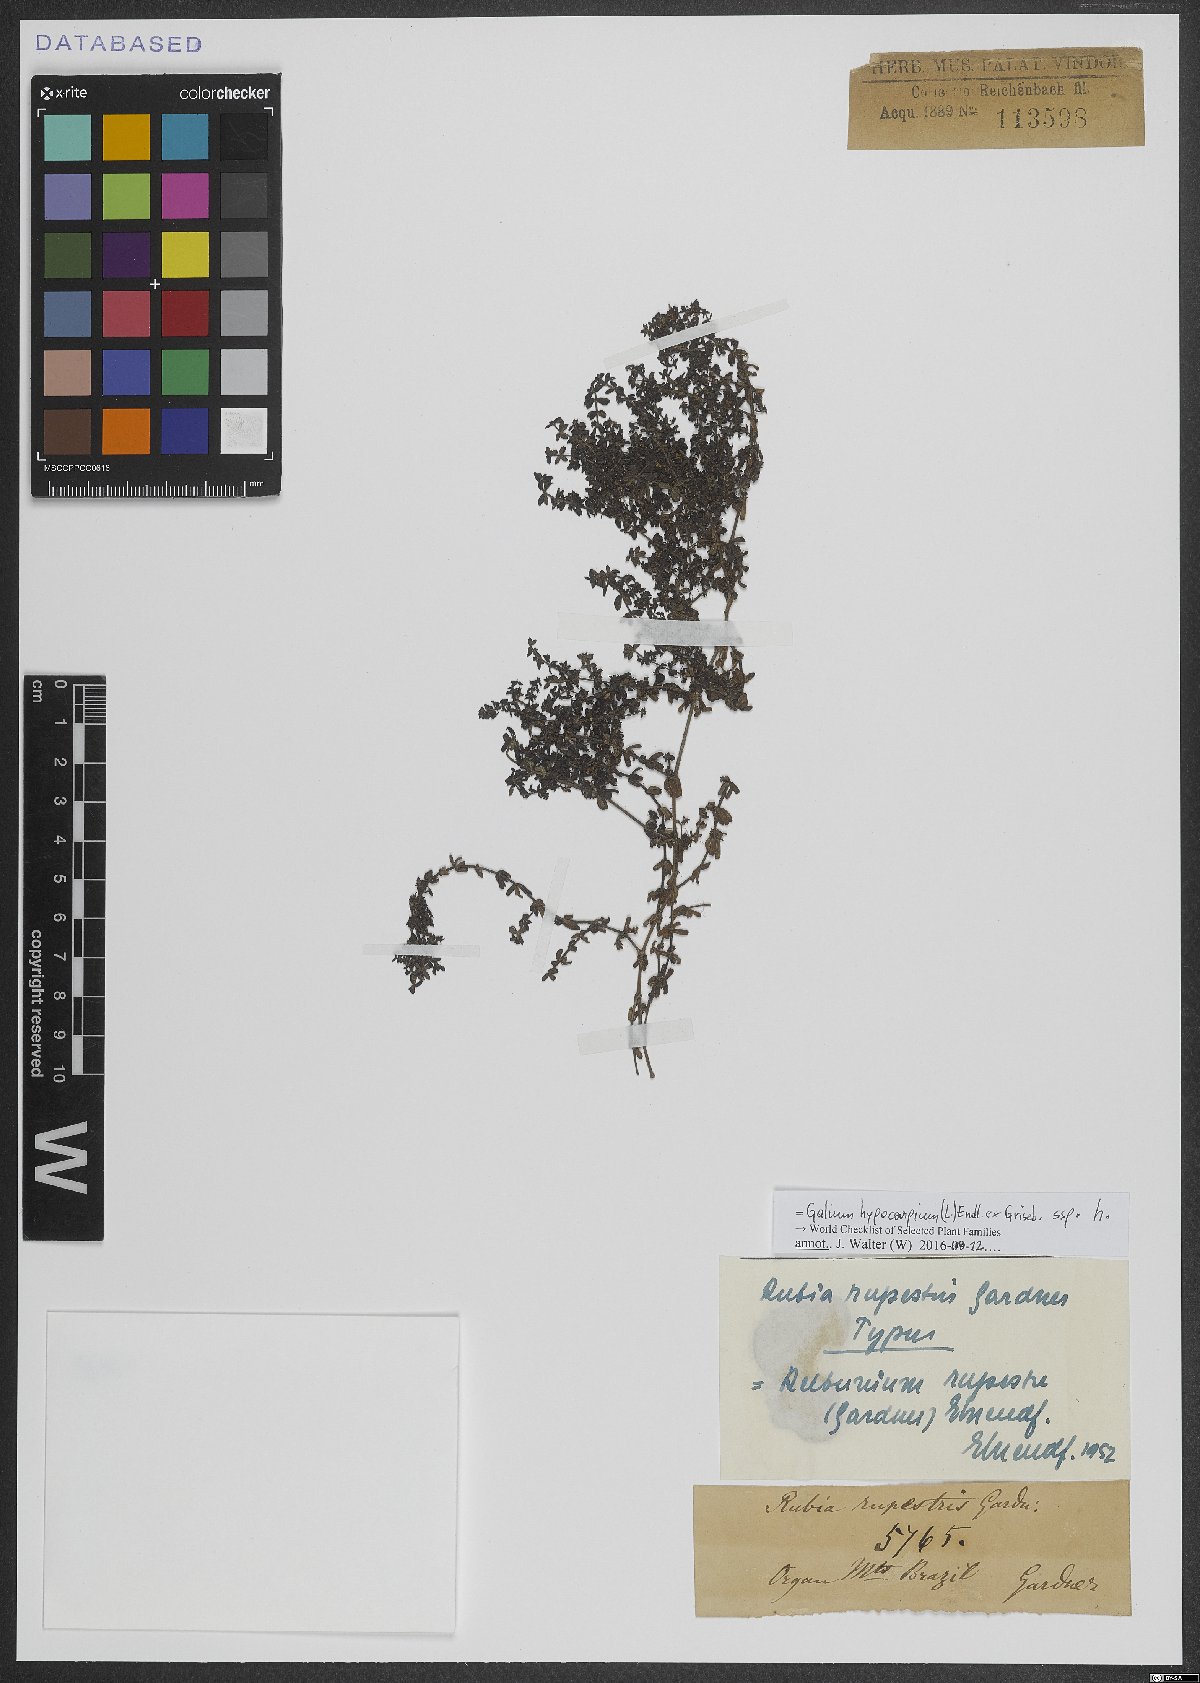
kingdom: Plantae
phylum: Tracheophyta
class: Magnoliopsida
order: Gentianales
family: Rubiaceae
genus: Galium
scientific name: Galium hypocarpium
